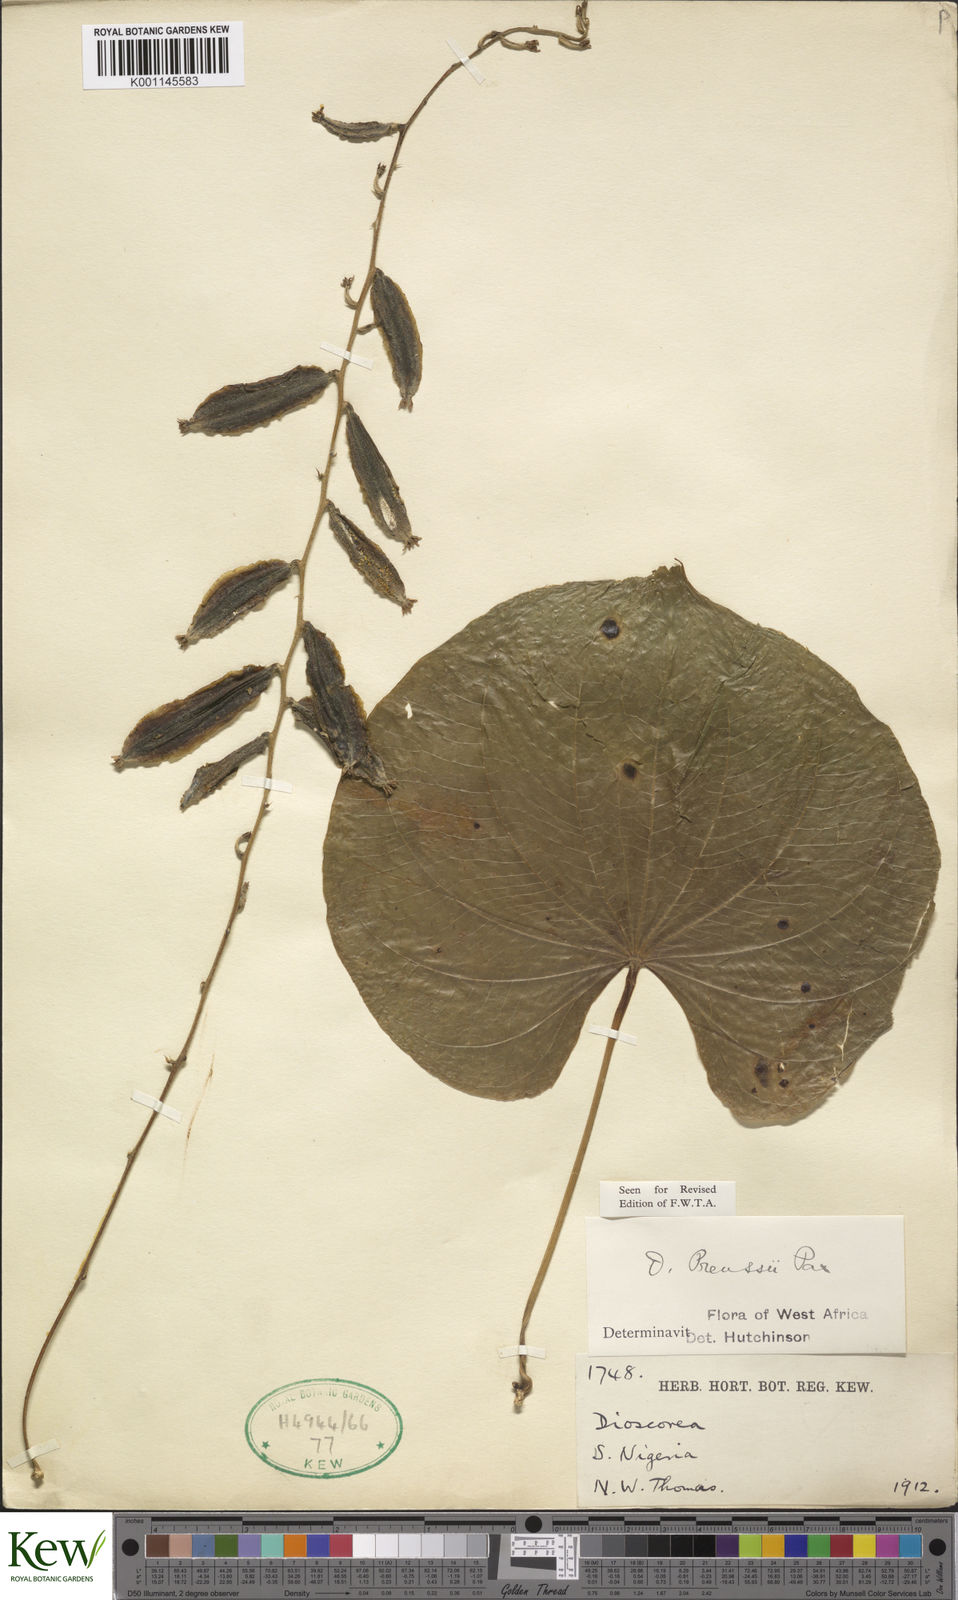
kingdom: Plantae
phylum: Tracheophyta
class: Liliopsida
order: Dioscoreales
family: Dioscoreaceae
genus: Dioscorea
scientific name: Dioscorea preussii
